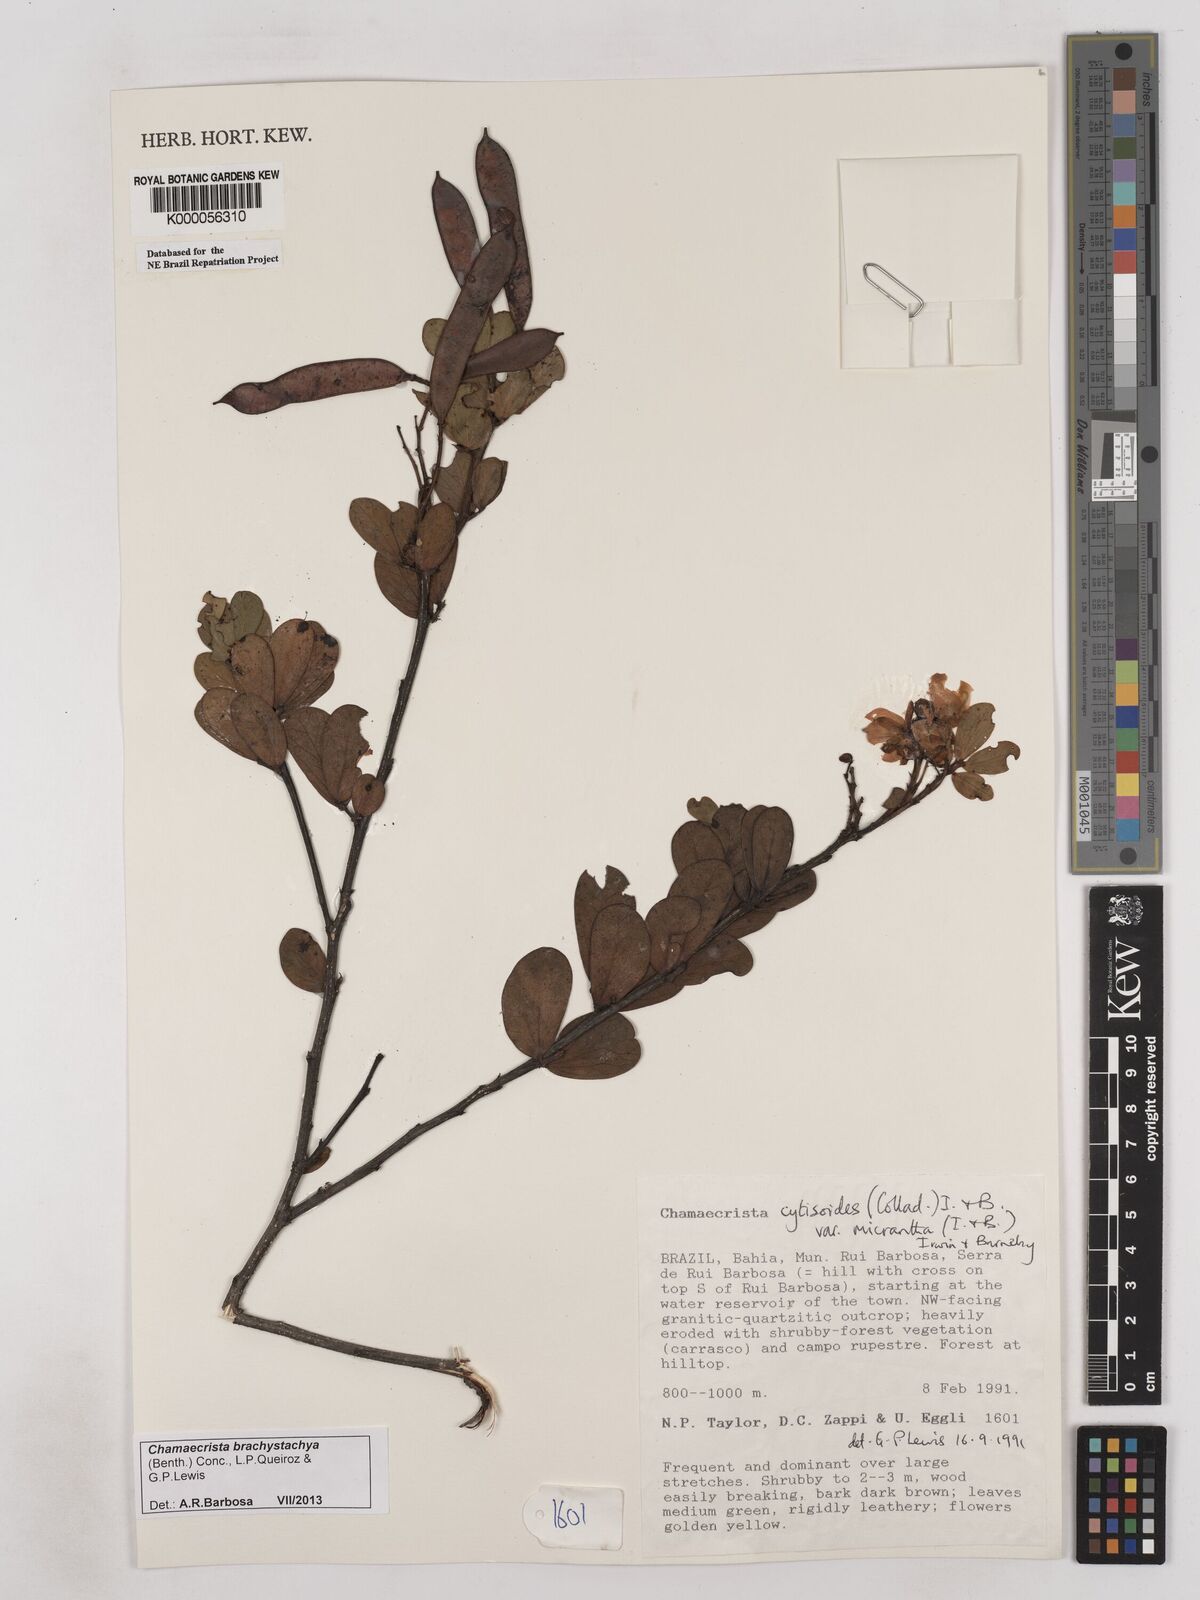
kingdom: Plantae
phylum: Tracheophyta
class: Magnoliopsida
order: Fabales
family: Fabaceae
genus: Chamaecrista
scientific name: Chamaecrista cytisoides
